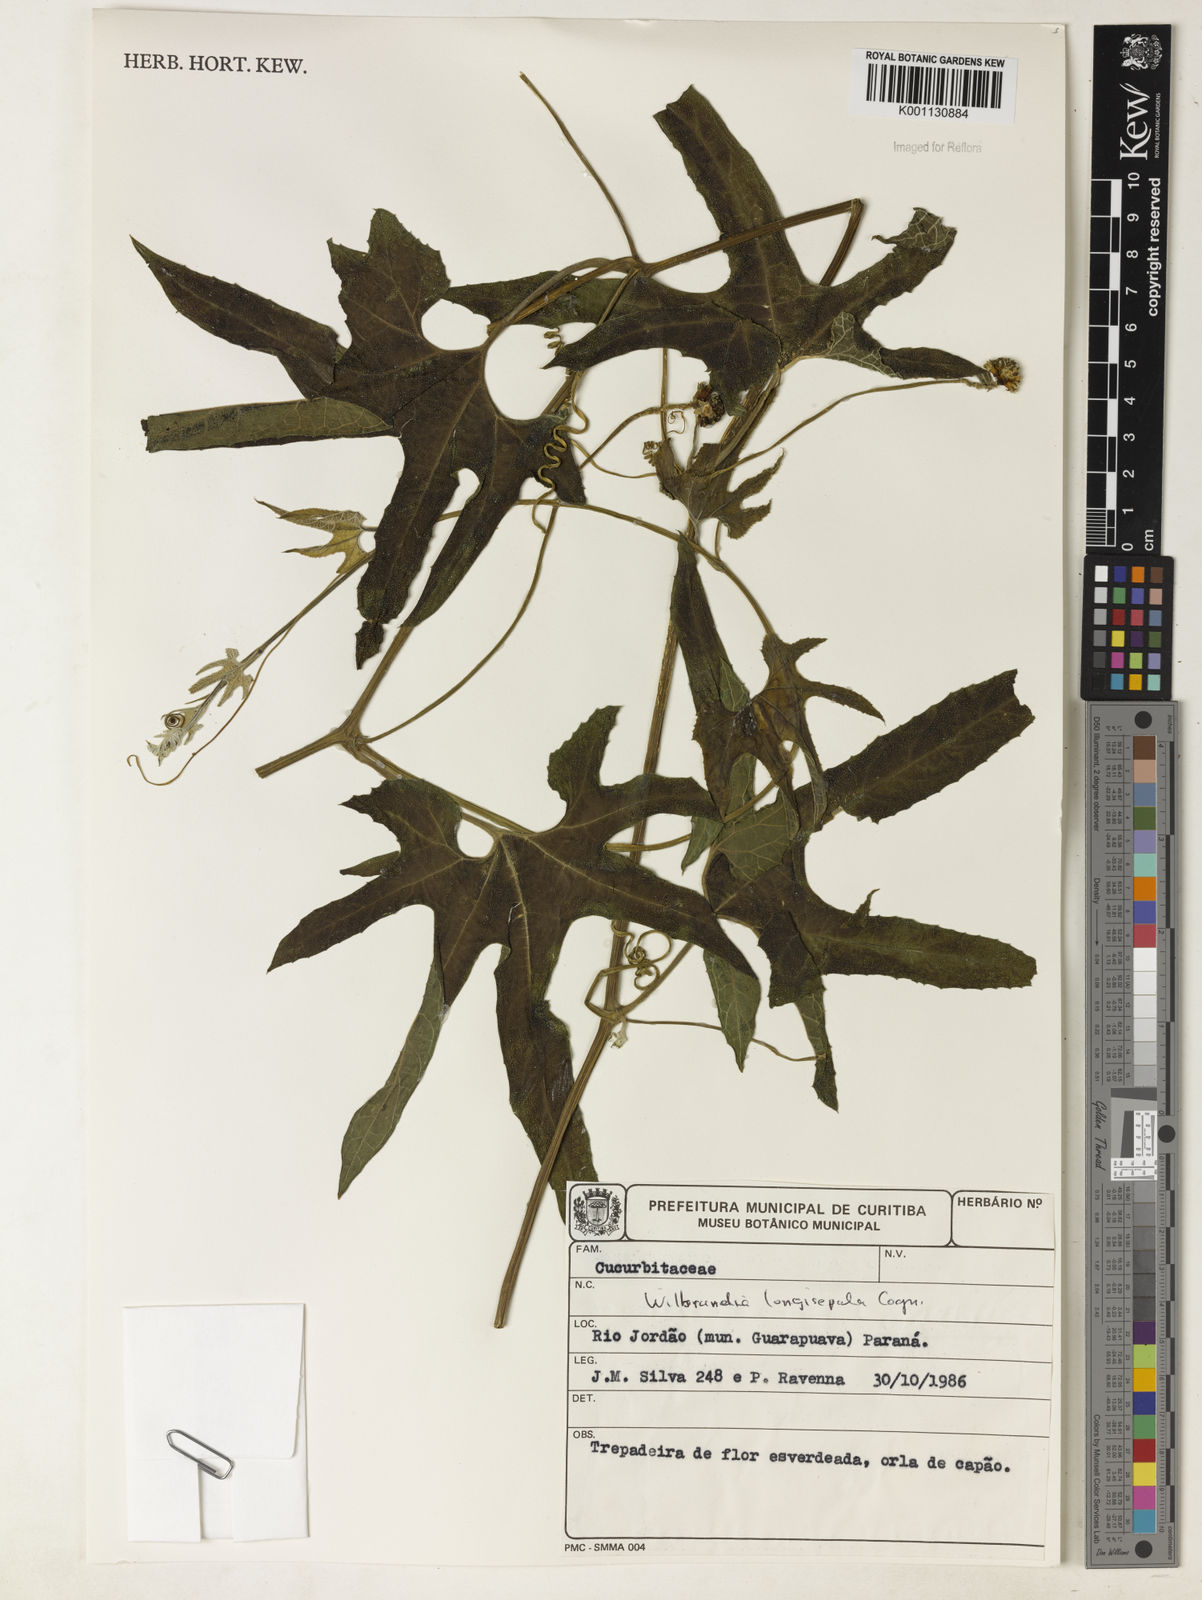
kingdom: Plantae
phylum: Tracheophyta
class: Magnoliopsida
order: Cucurbitales
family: Cucurbitaceae
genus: Wilbrandia
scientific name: Wilbrandia longisepala
